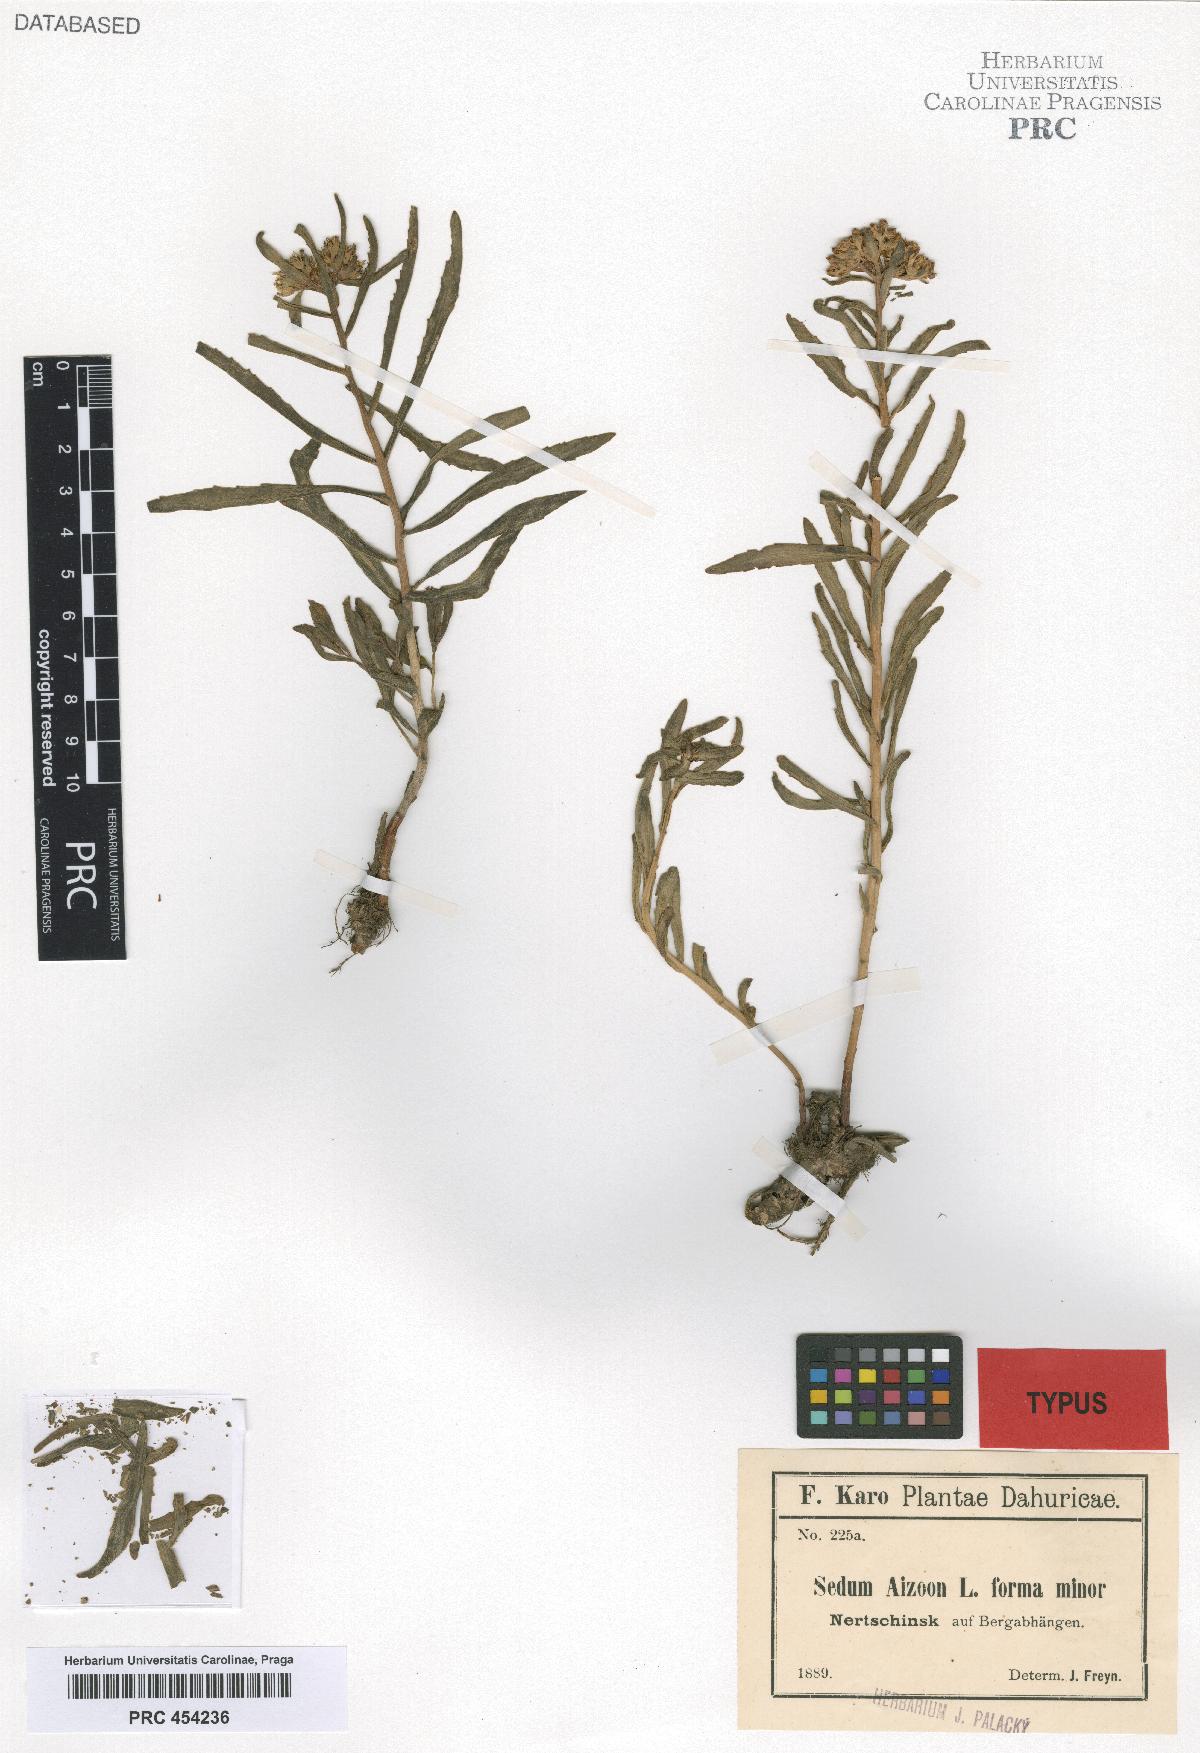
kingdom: Plantae
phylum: Tracheophyta
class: Magnoliopsida
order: Saxifragales
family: Crassulaceae
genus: Sedum
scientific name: Sedum aizoon
